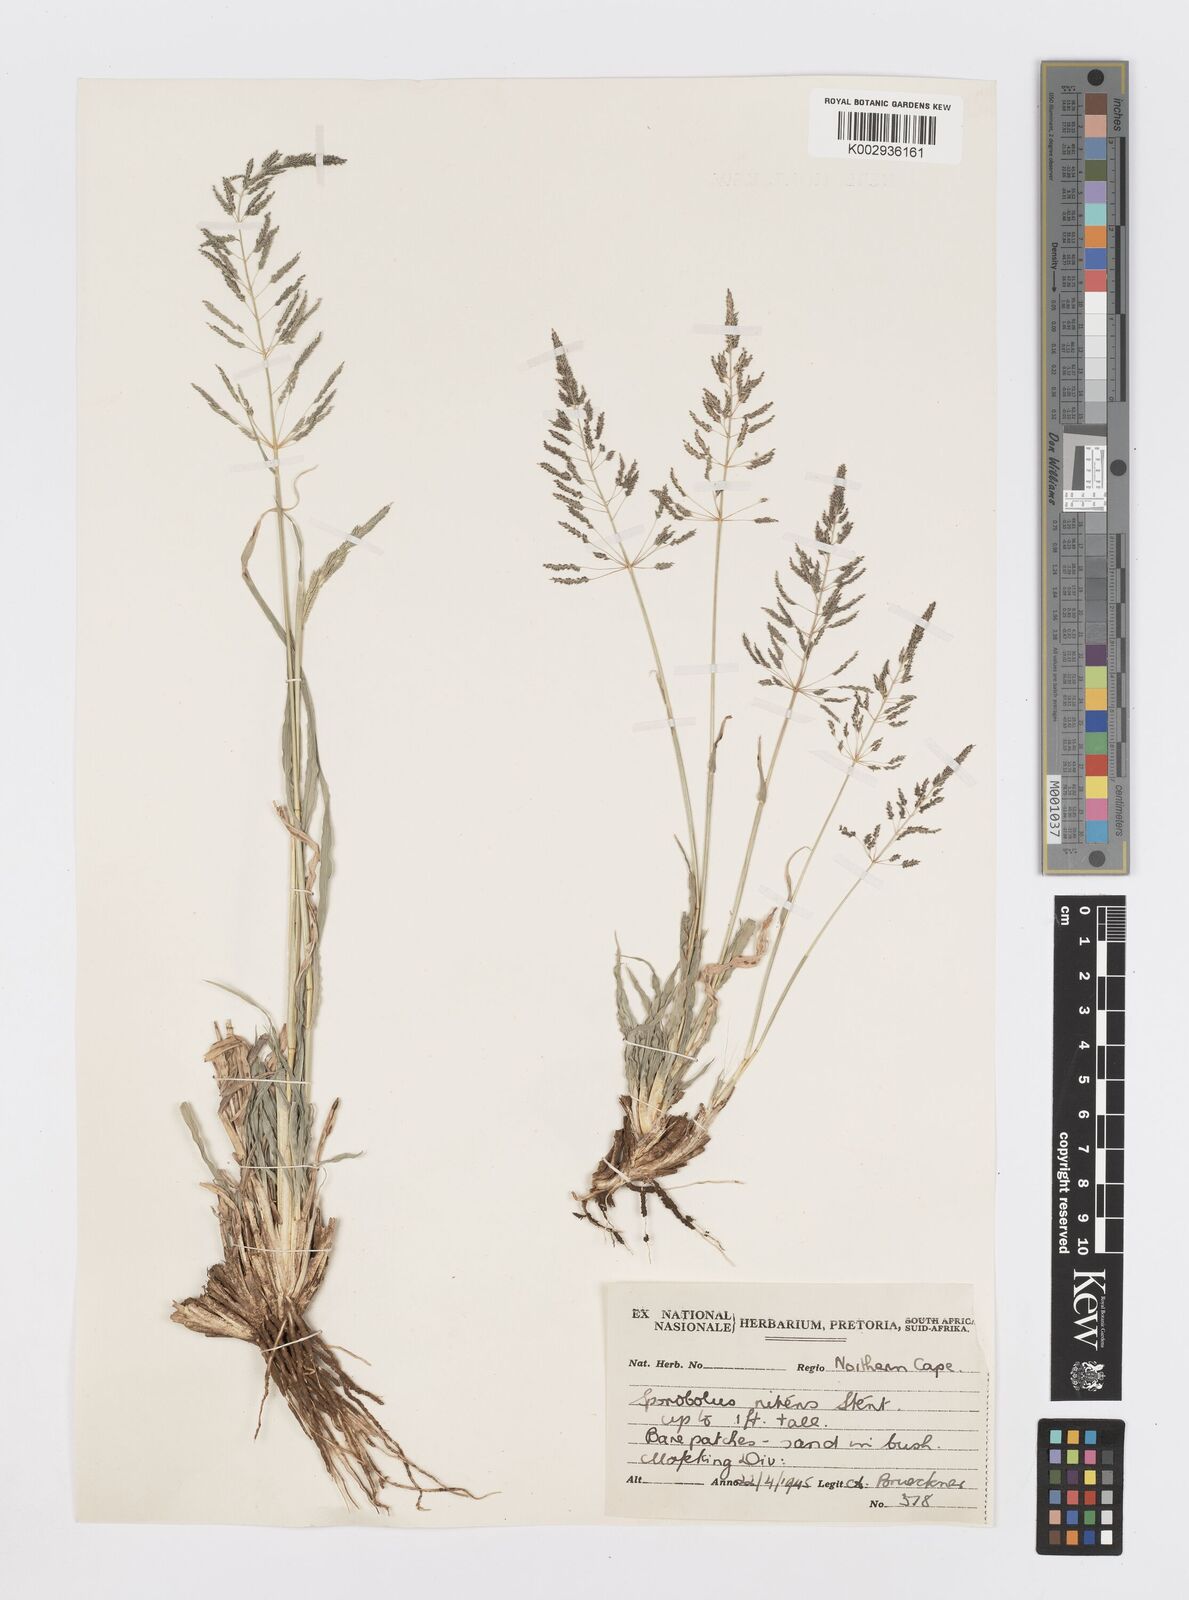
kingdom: Plantae
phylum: Tracheophyta
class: Liliopsida
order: Poales
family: Poaceae
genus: Sporobolus
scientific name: Sporobolus nitens
